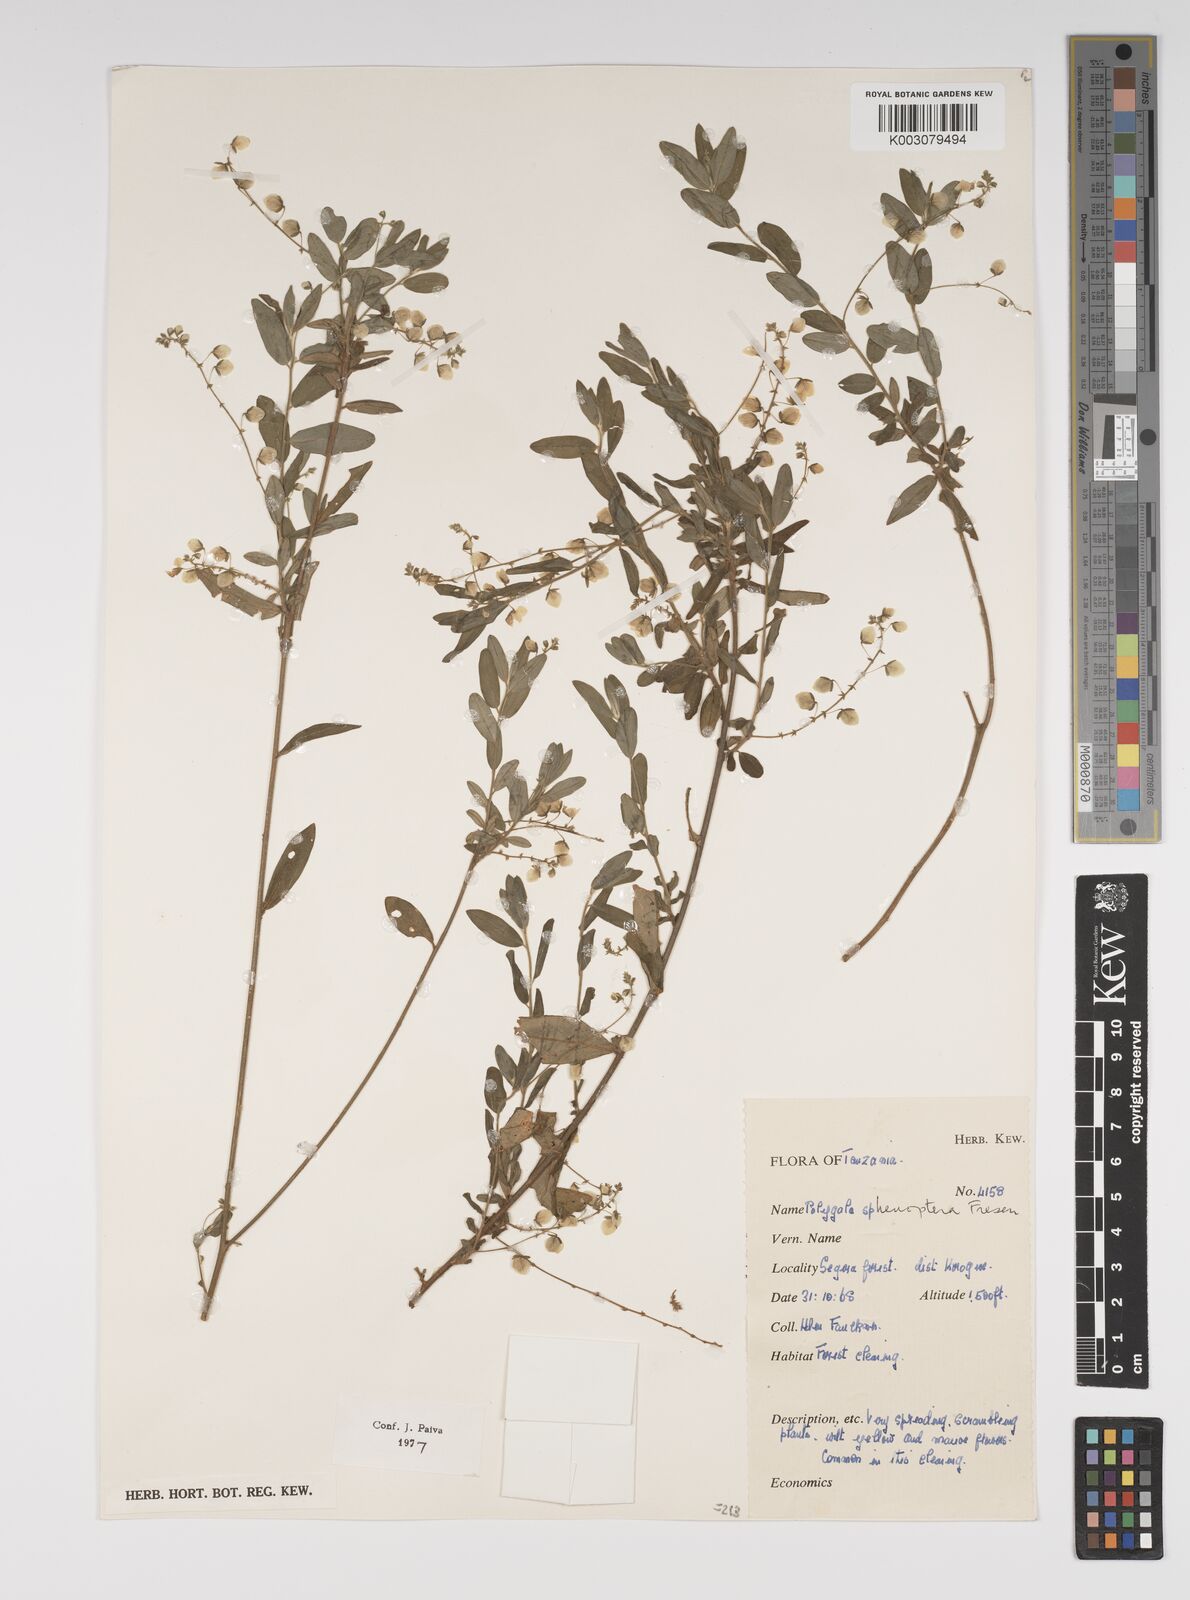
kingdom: Plantae
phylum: Tracheophyta
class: Magnoliopsida
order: Fabales
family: Polygalaceae
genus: Polygala
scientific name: Polygala sphenoptera
